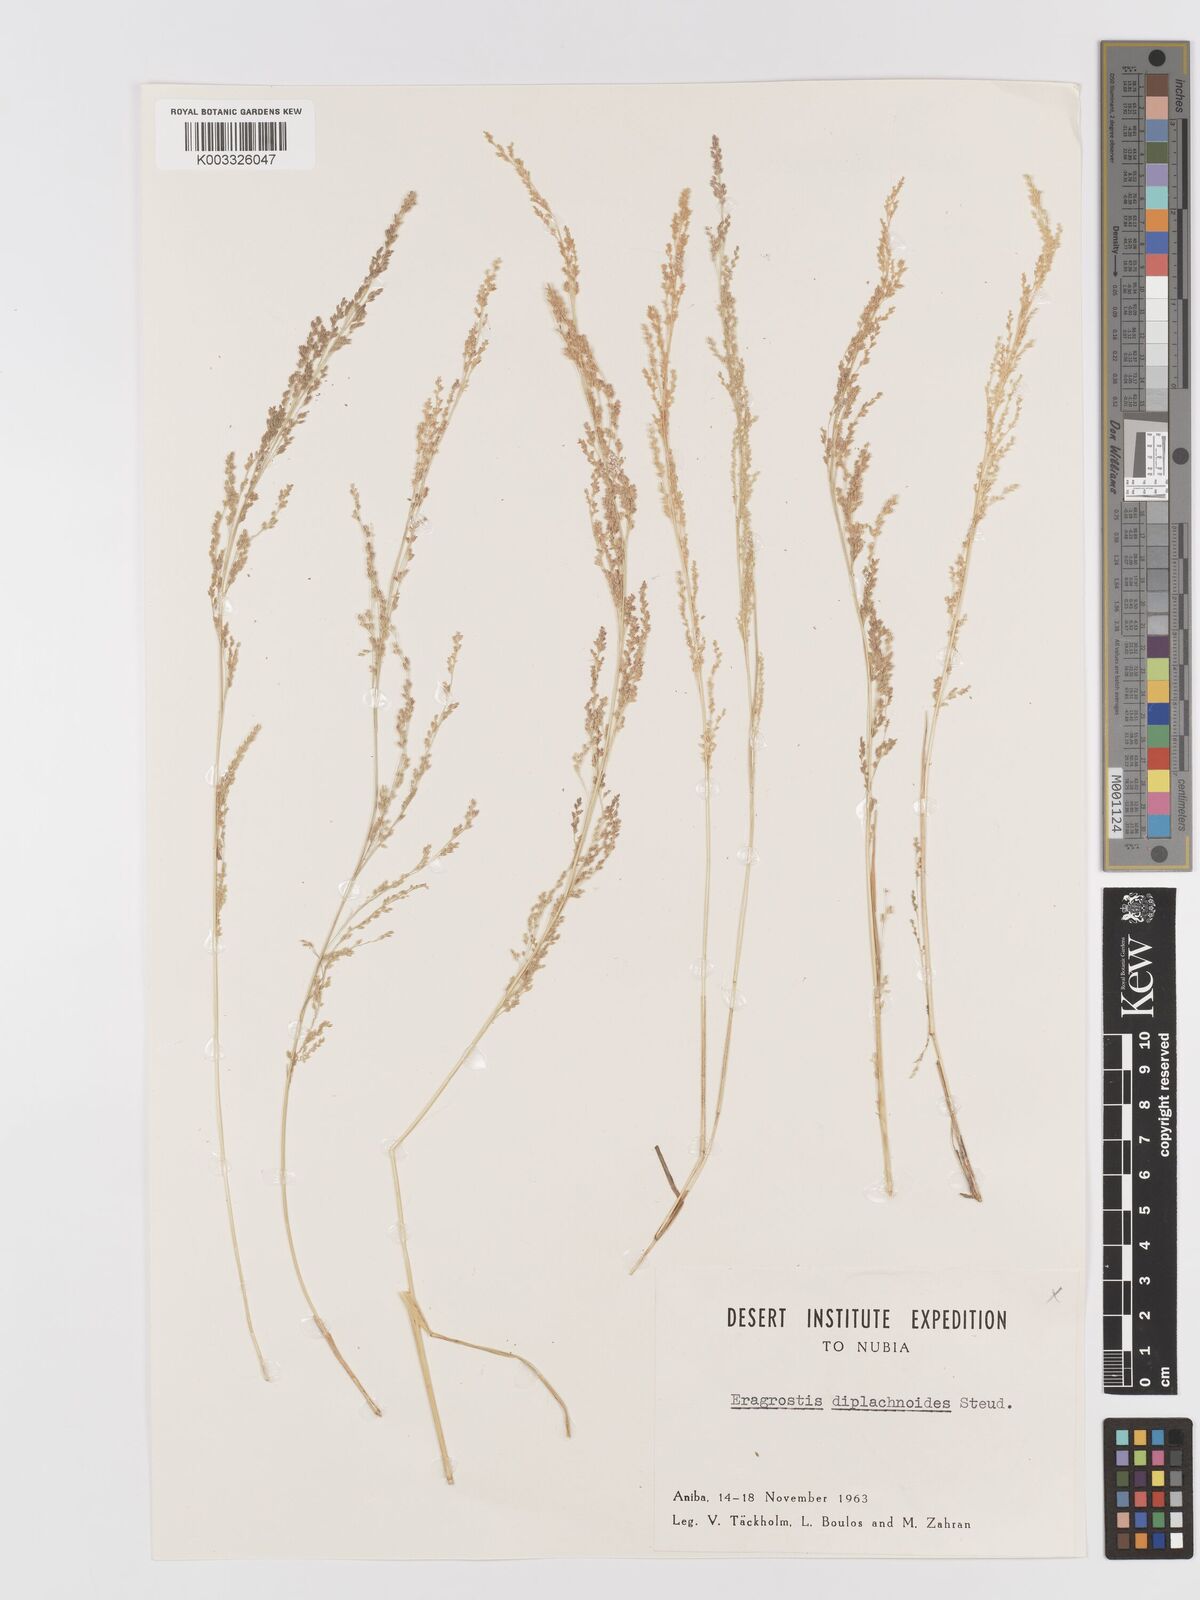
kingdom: Plantae
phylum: Tracheophyta
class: Liliopsida
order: Poales
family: Poaceae
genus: Eragrostis
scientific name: Eragrostis japonica
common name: Pond lovegrass
